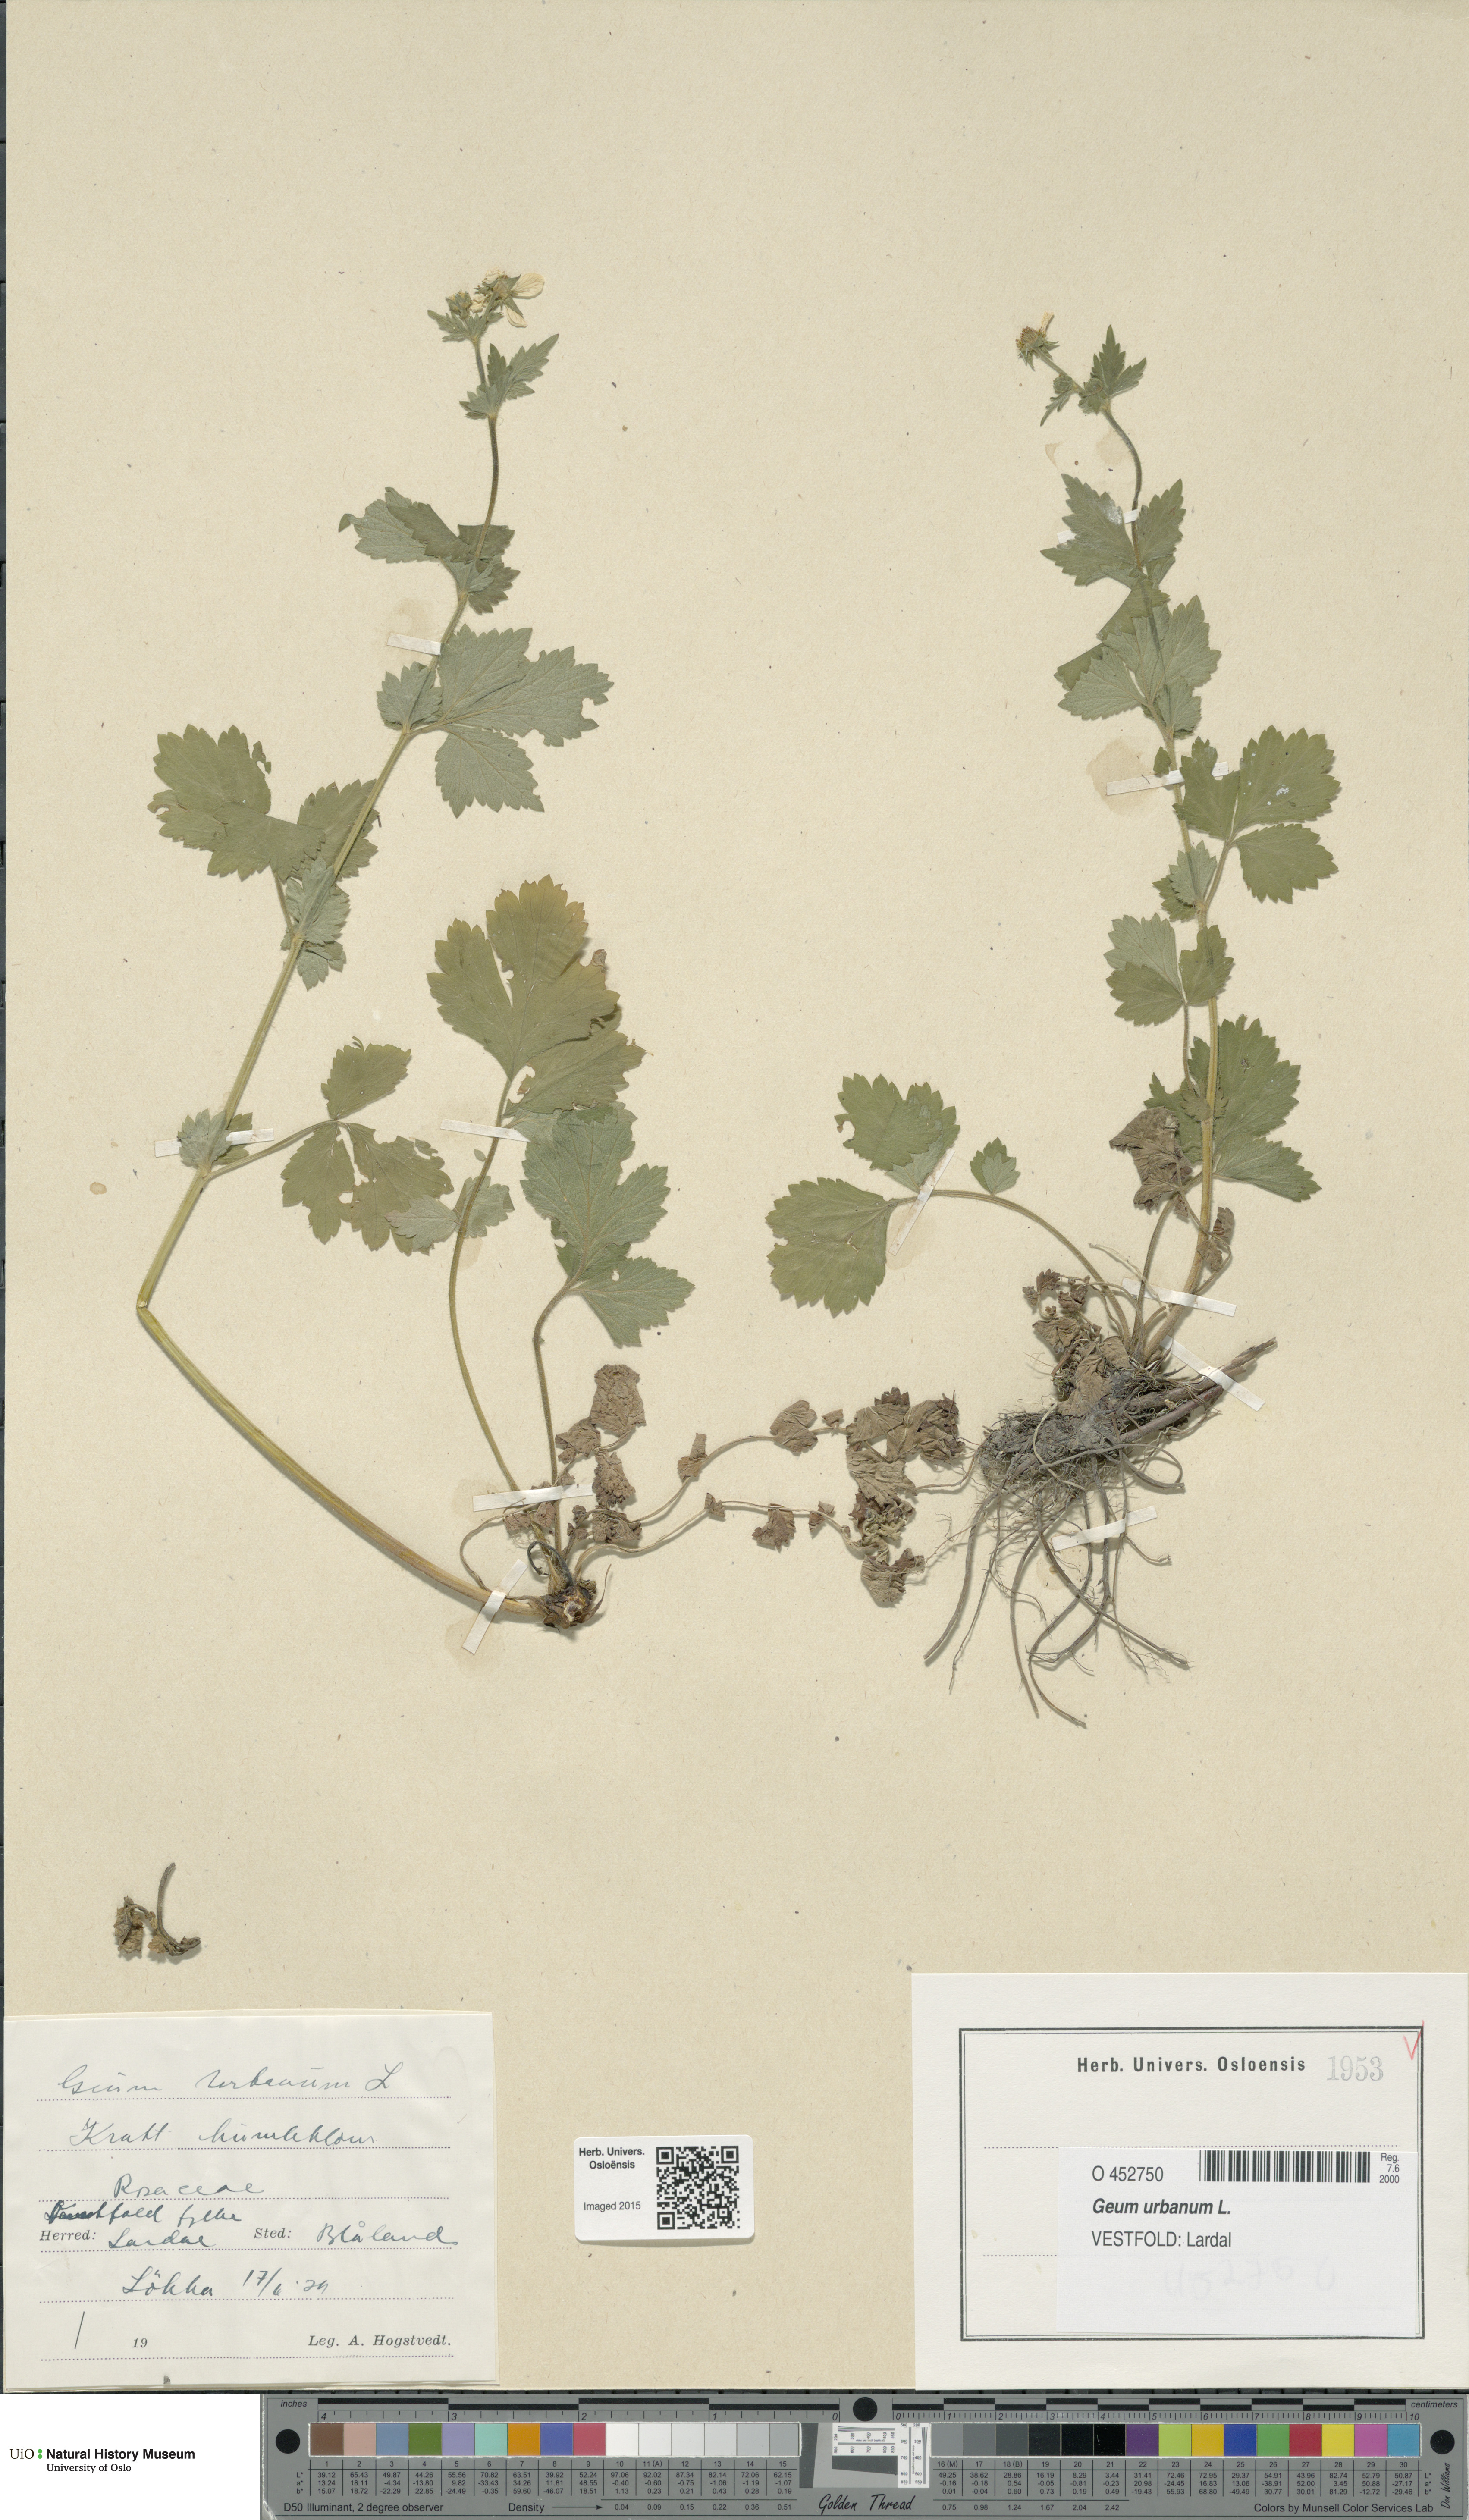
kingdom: Plantae
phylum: Tracheophyta
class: Magnoliopsida
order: Rosales
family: Rosaceae
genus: Geum
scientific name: Geum urbanum
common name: Wood avens
